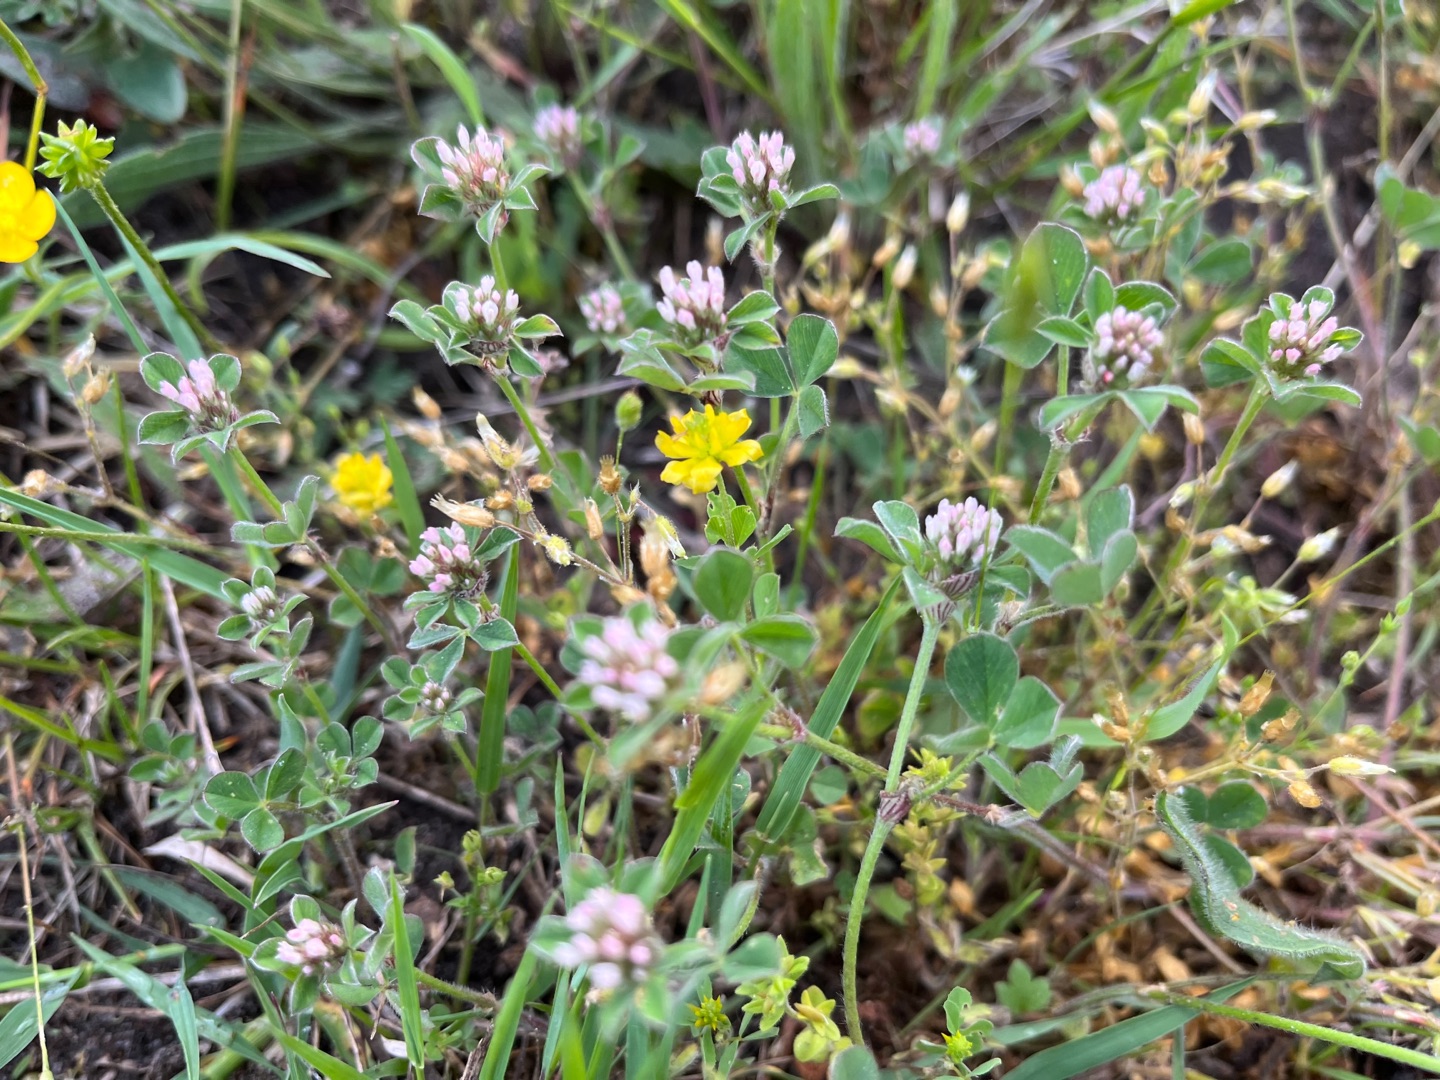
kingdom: Plantae
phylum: Tracheophyta
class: Magnoliopsida
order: Fabales
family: Fabaceae
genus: Trifolium
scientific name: Trifolium striatum
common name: Stribet kløver
